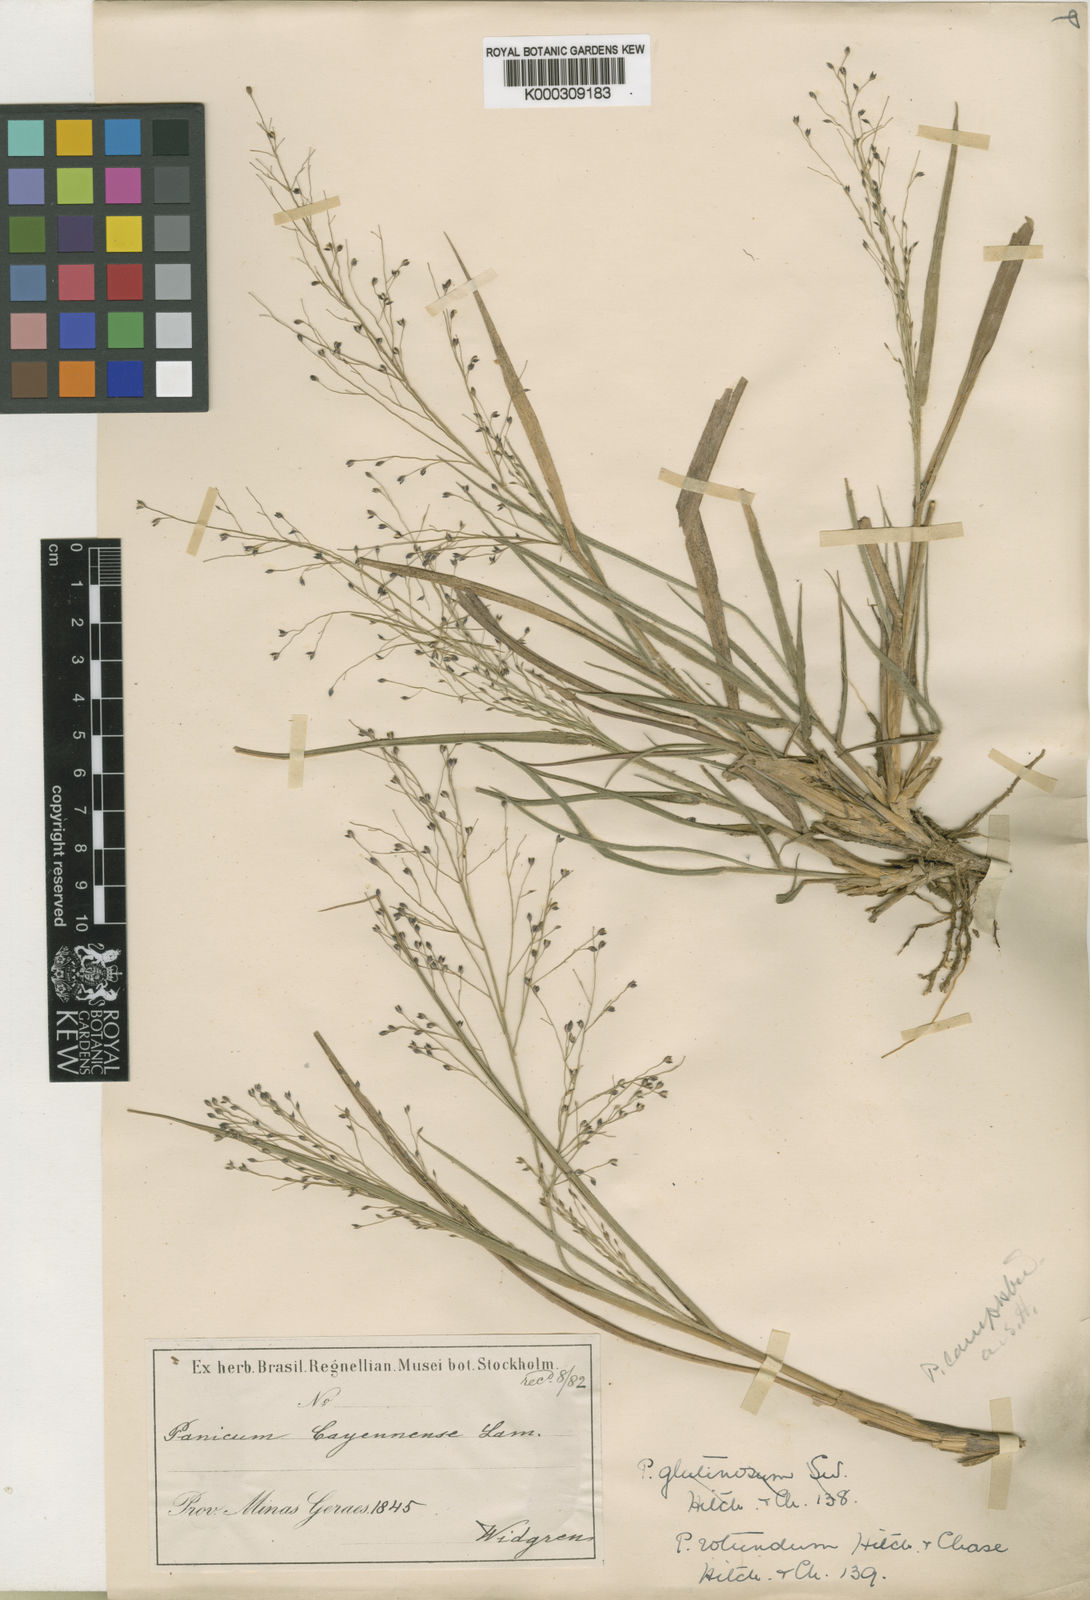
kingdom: Plantae
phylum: Tracheophyta
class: Liliopsida
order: Poales
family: Poaceae
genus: Panicum
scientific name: Panicum campestre
